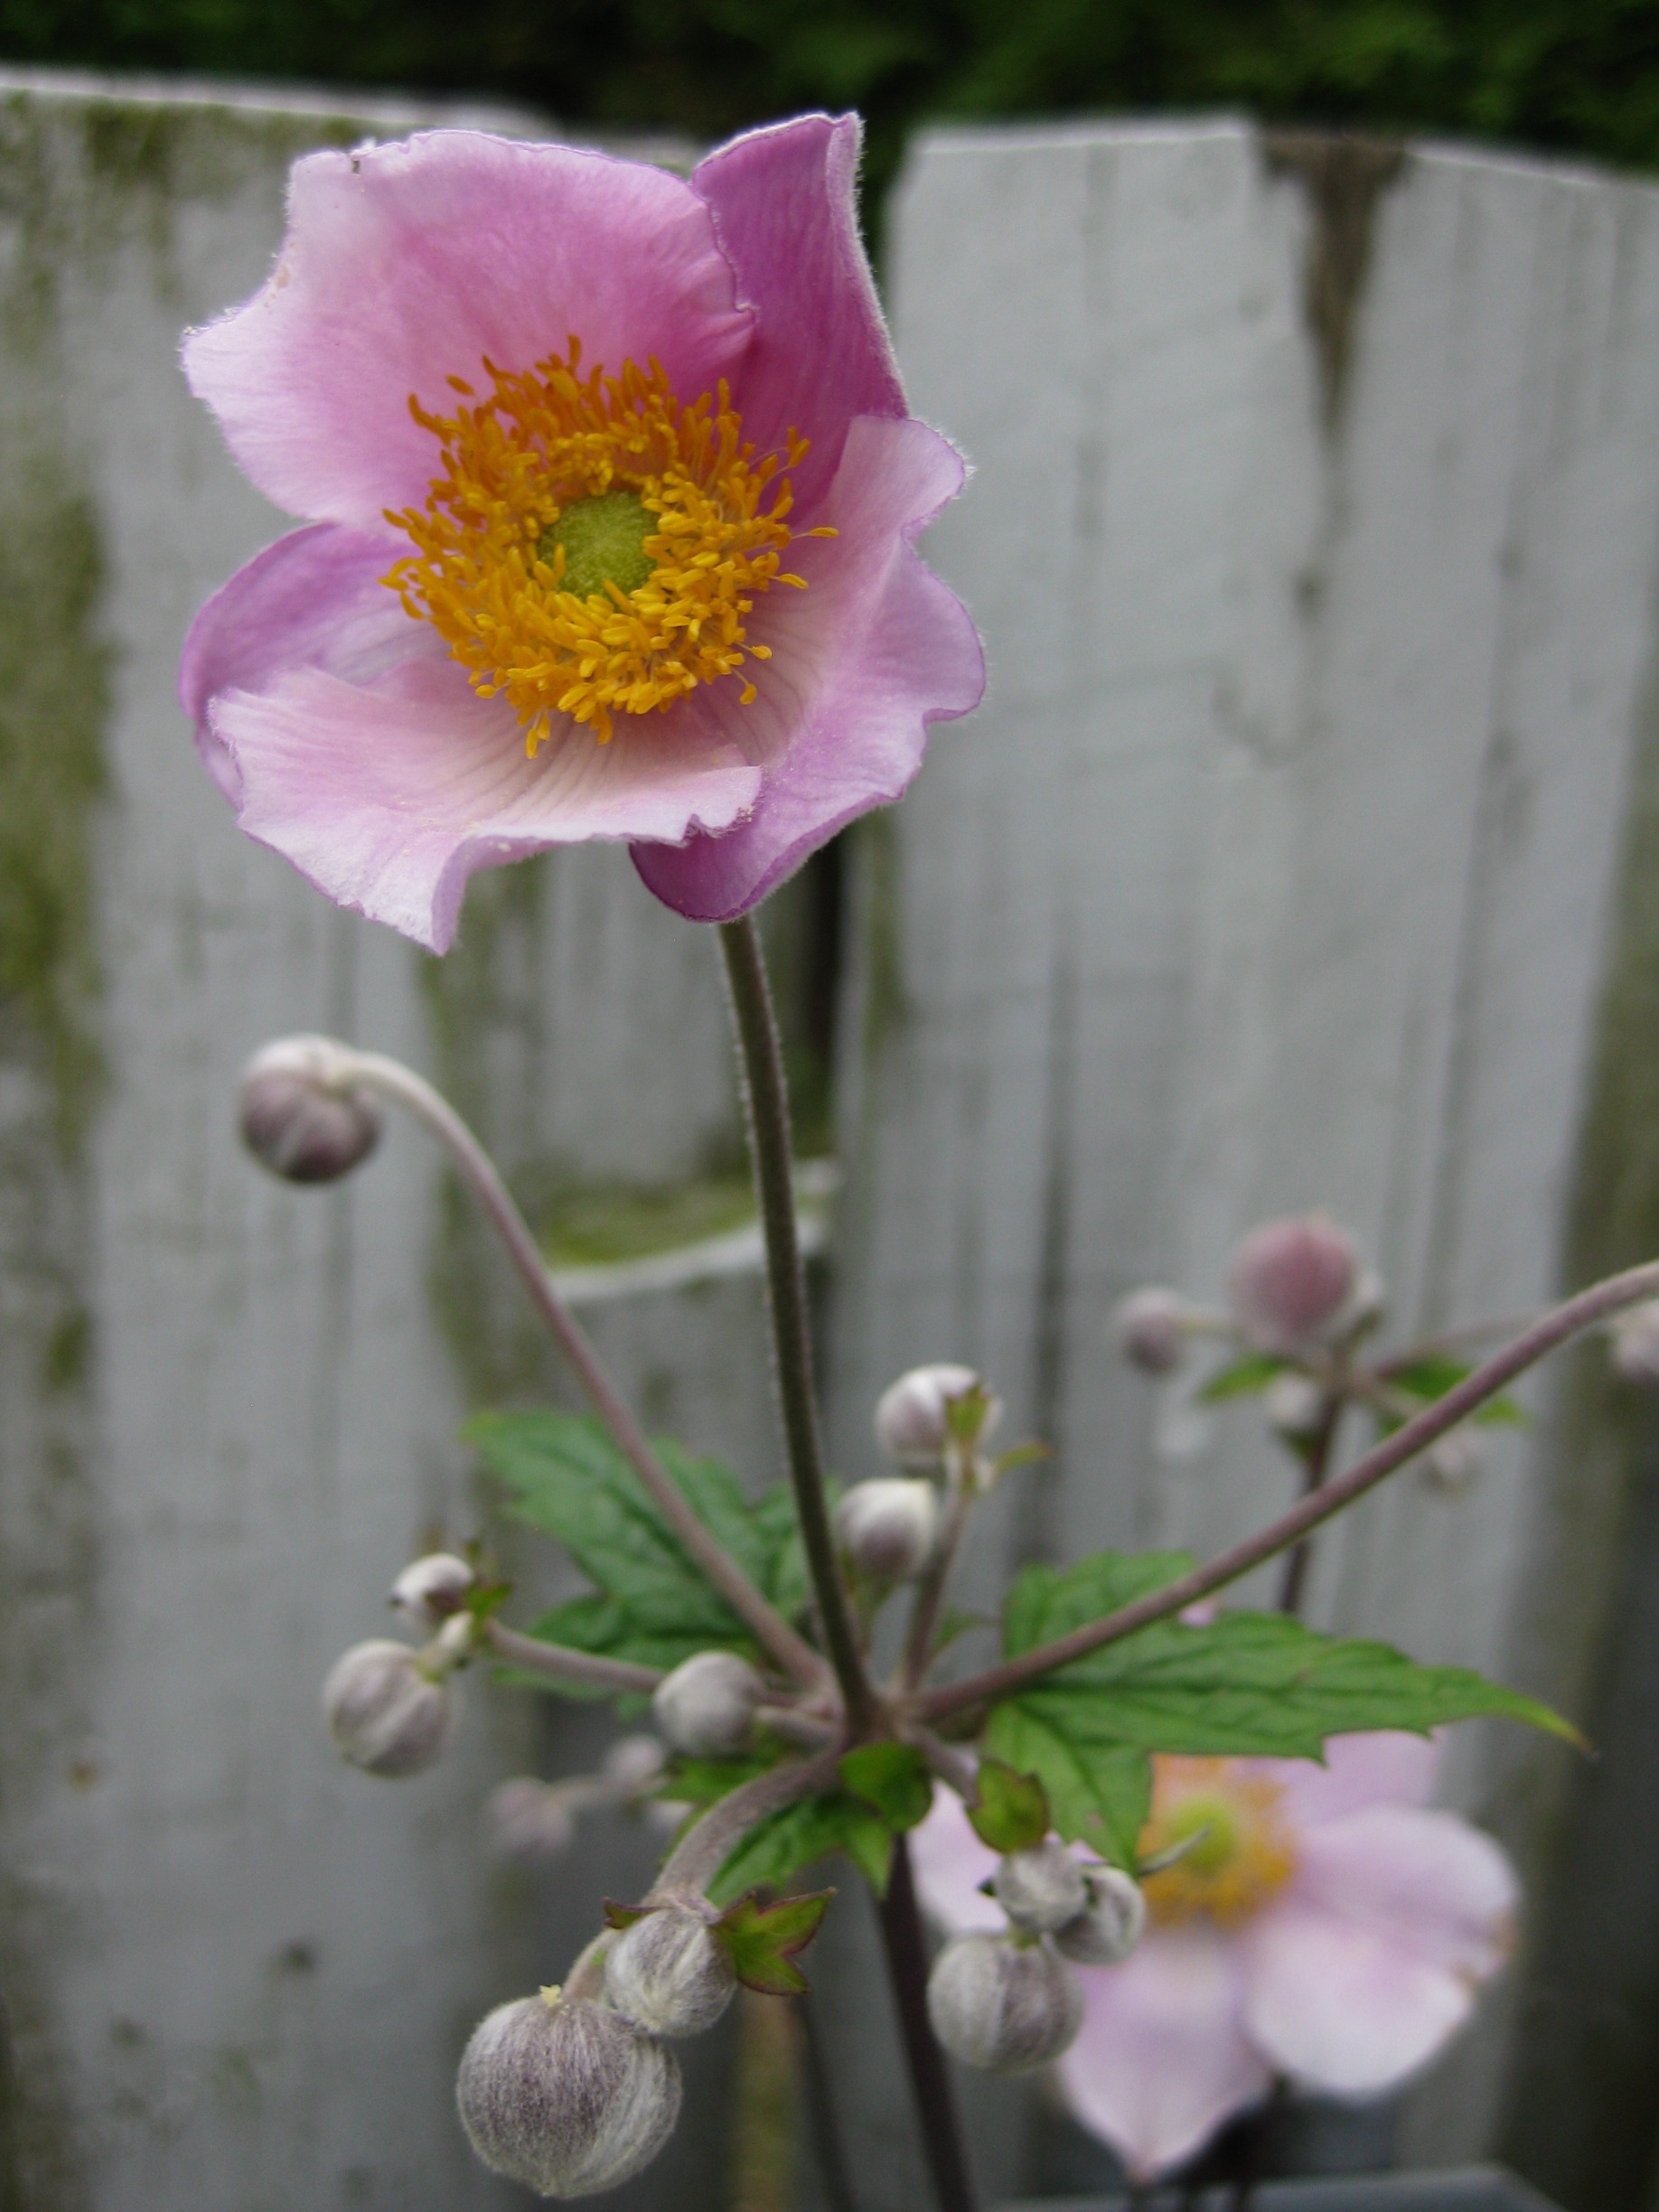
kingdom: Plantae
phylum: Tracheophyta
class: Magnoliopsida
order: Ranunculales
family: Ranunculaceae
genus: Eriocapitella
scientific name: Eriocapitella hupehensis
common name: Høst-anemone
